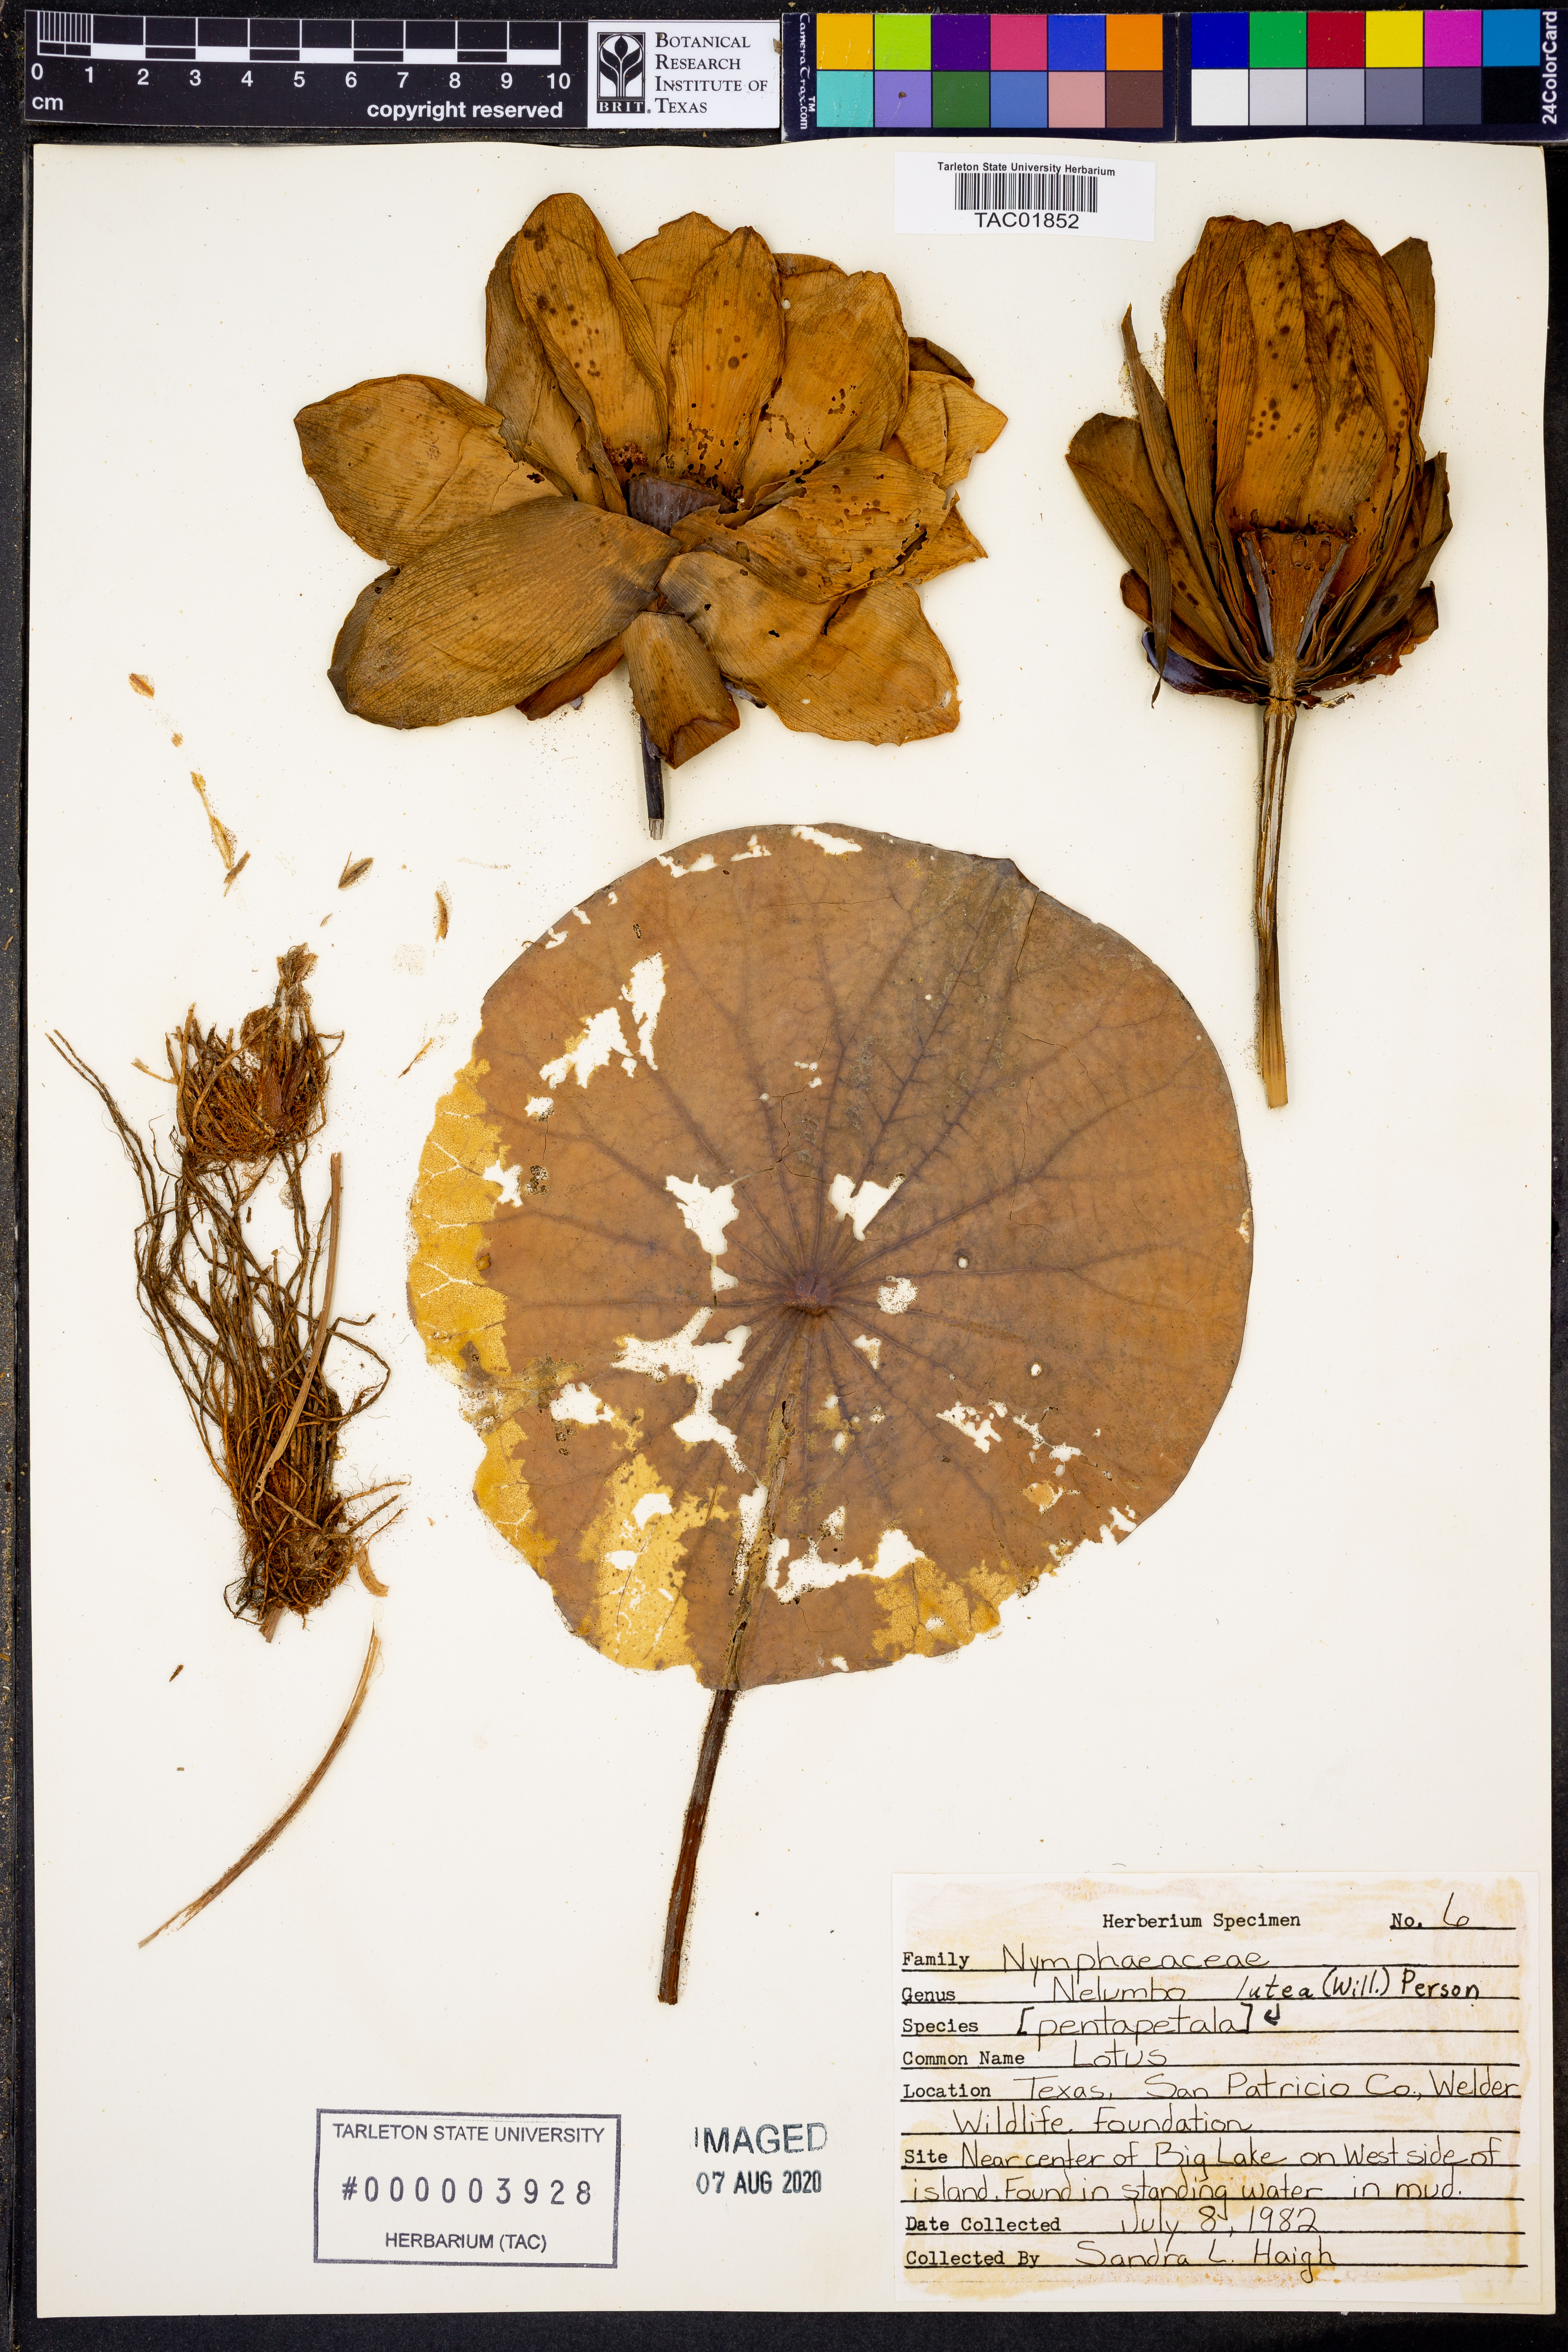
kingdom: Plantae
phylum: Tracheophyta
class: Magnoliopsida
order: Proteales
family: Nelumbonaceae
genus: Nelumbo
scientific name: Nelumbo lutea
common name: American lotus
